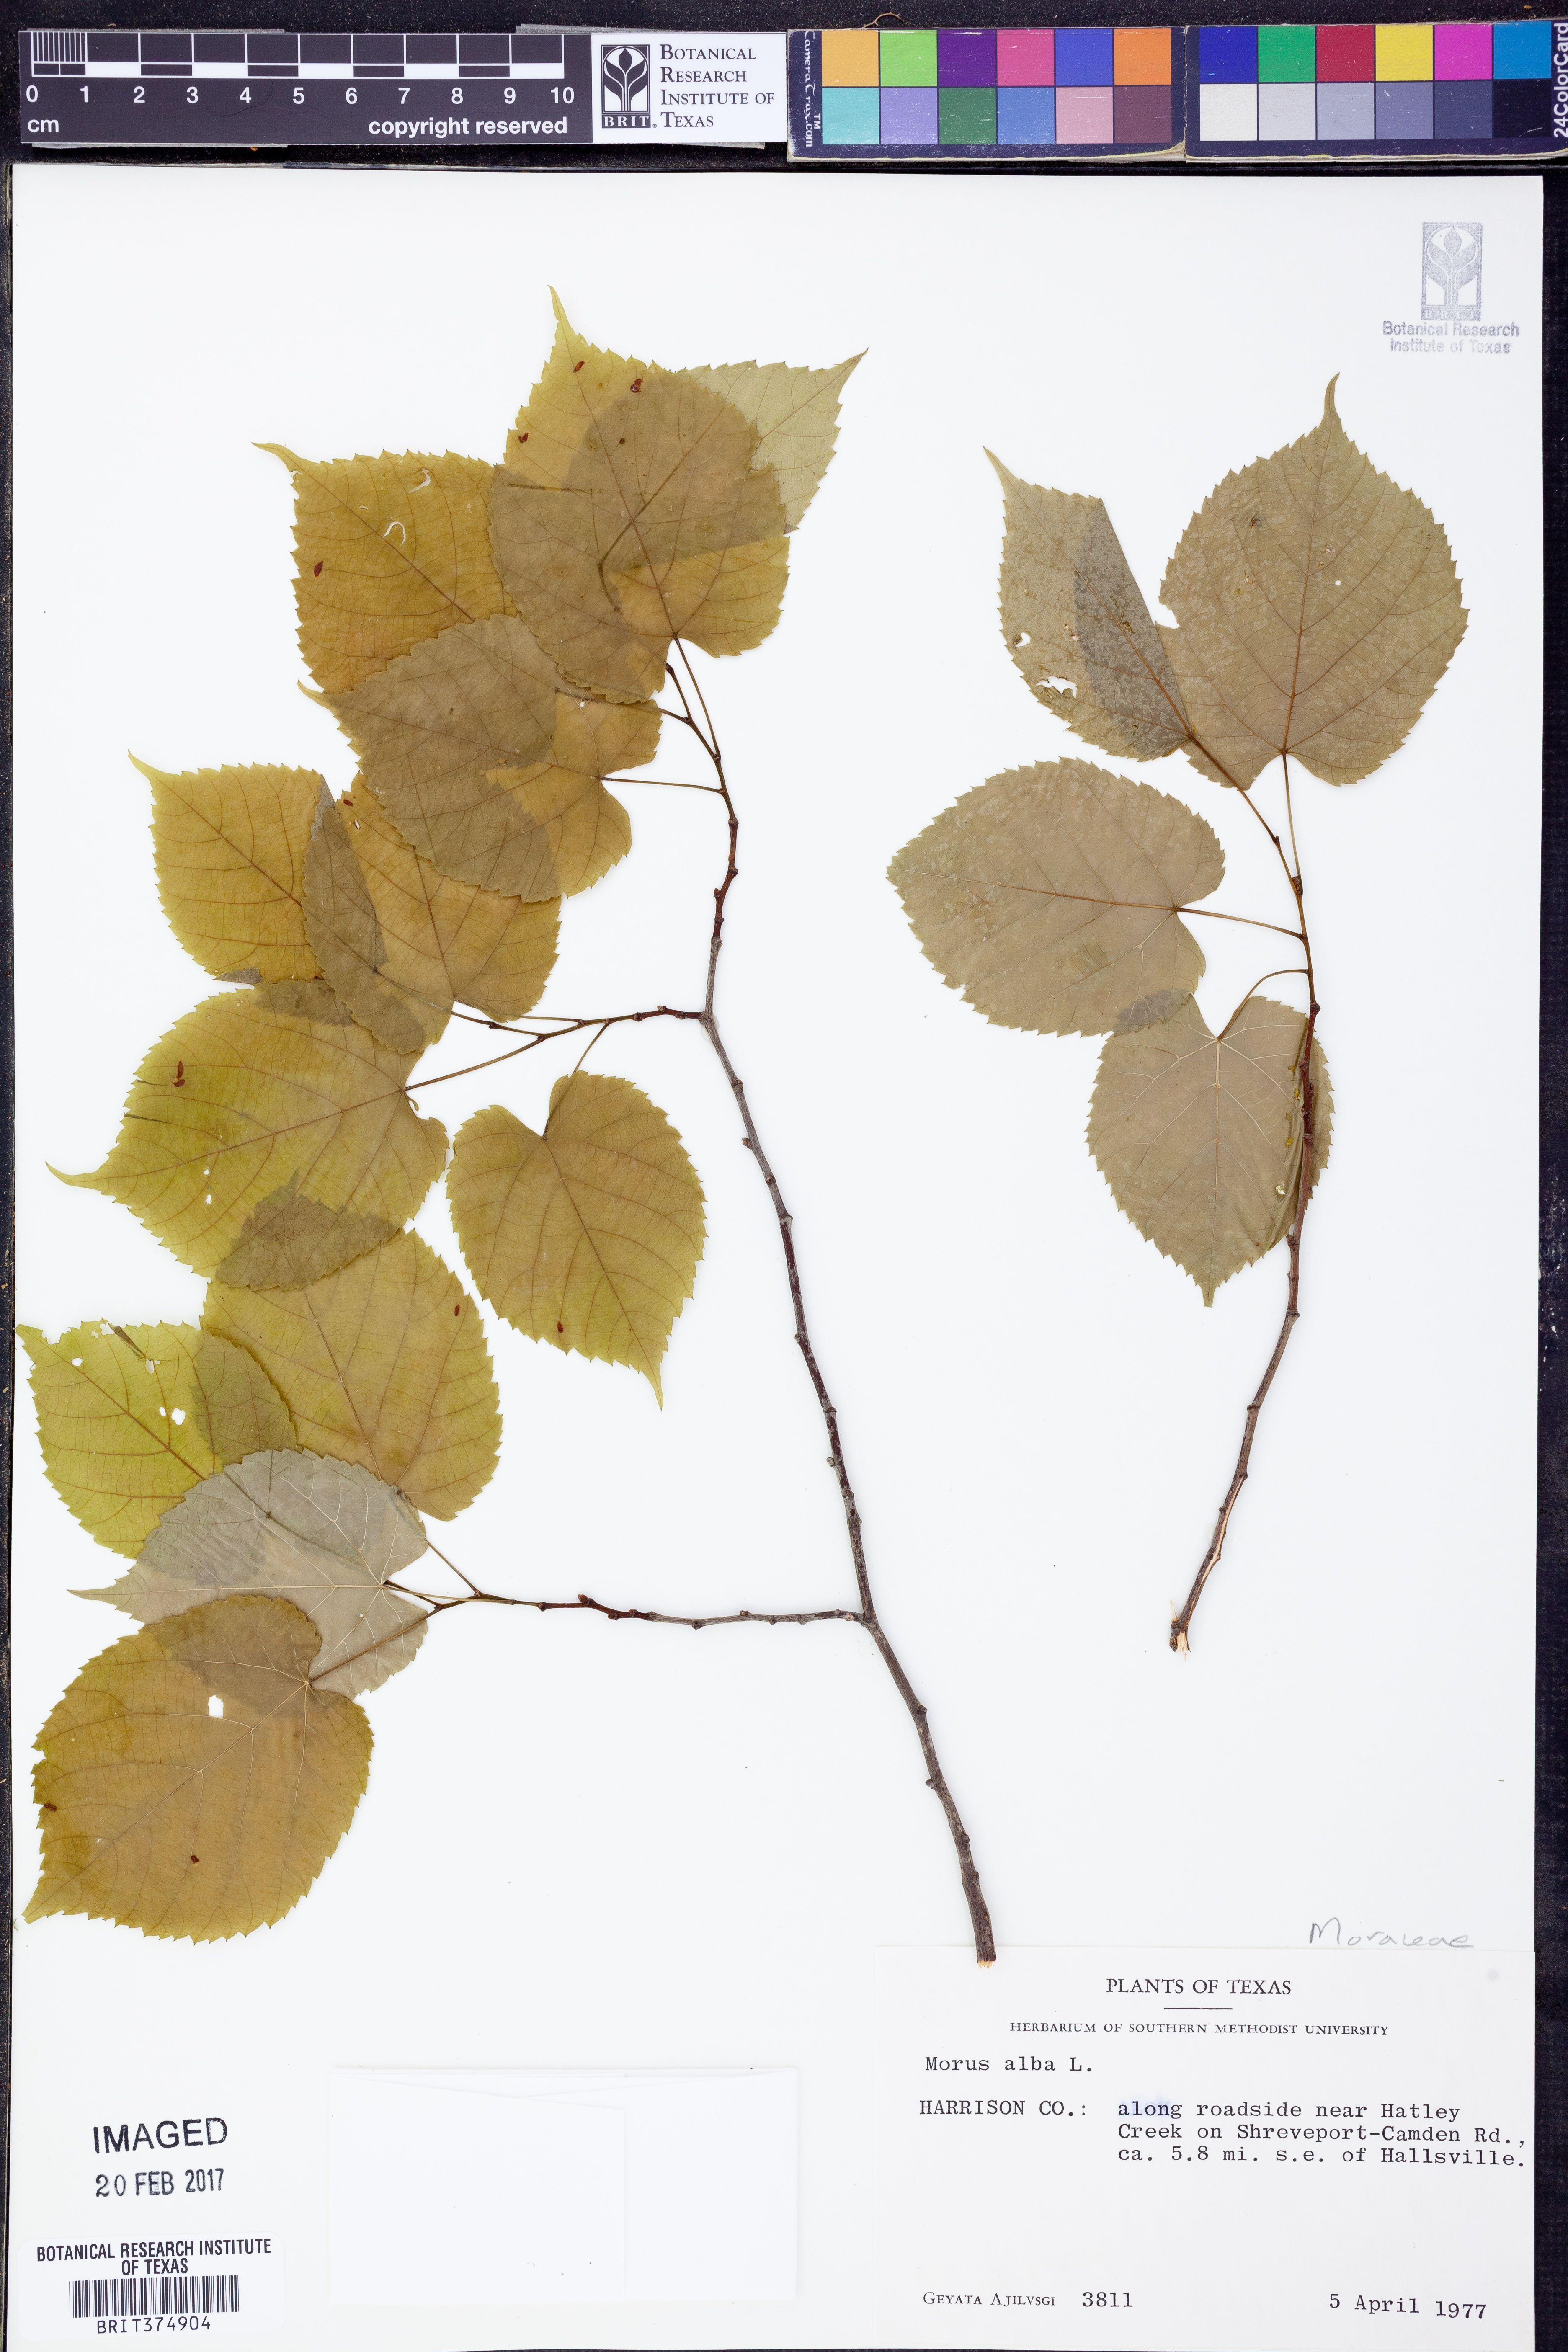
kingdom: Plantae
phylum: Tracheophyta
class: Magnoliopsida
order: Rosales
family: Moraceae
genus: Morus
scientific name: Morus alba
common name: White mulberry
